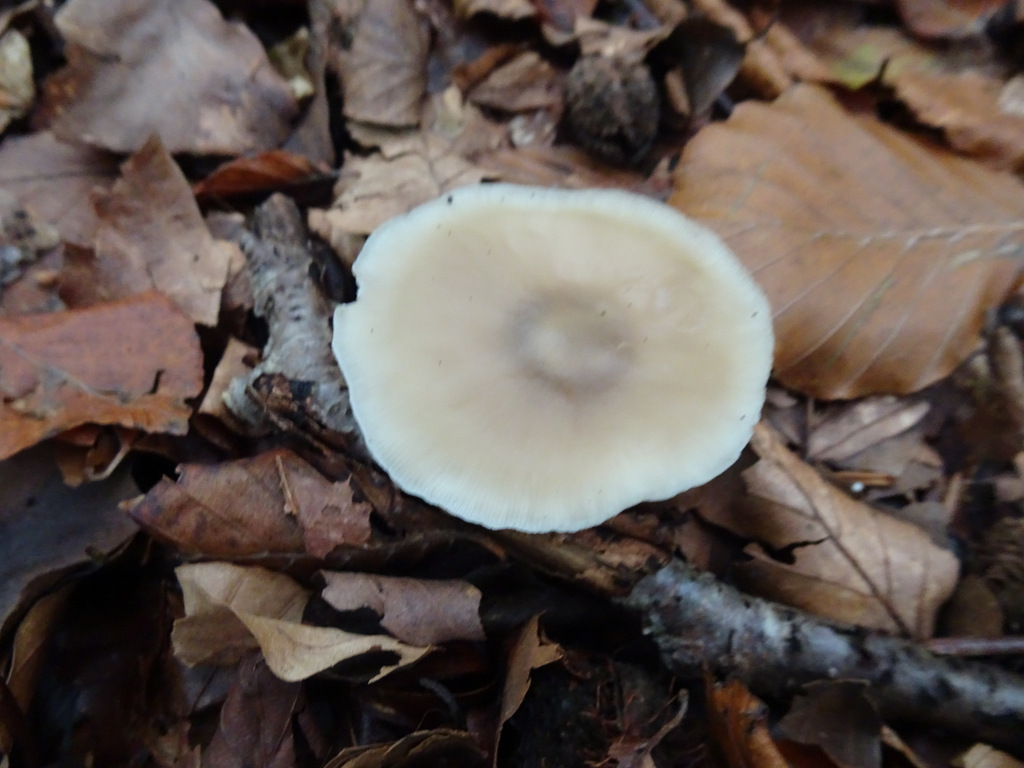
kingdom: Fungi
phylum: Basidiomycota
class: Agaricomycetes
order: Agaricales
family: Omphalotaceae
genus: Rhodocollybia
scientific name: Rhodocollybia asema
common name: horngrå fladhat
